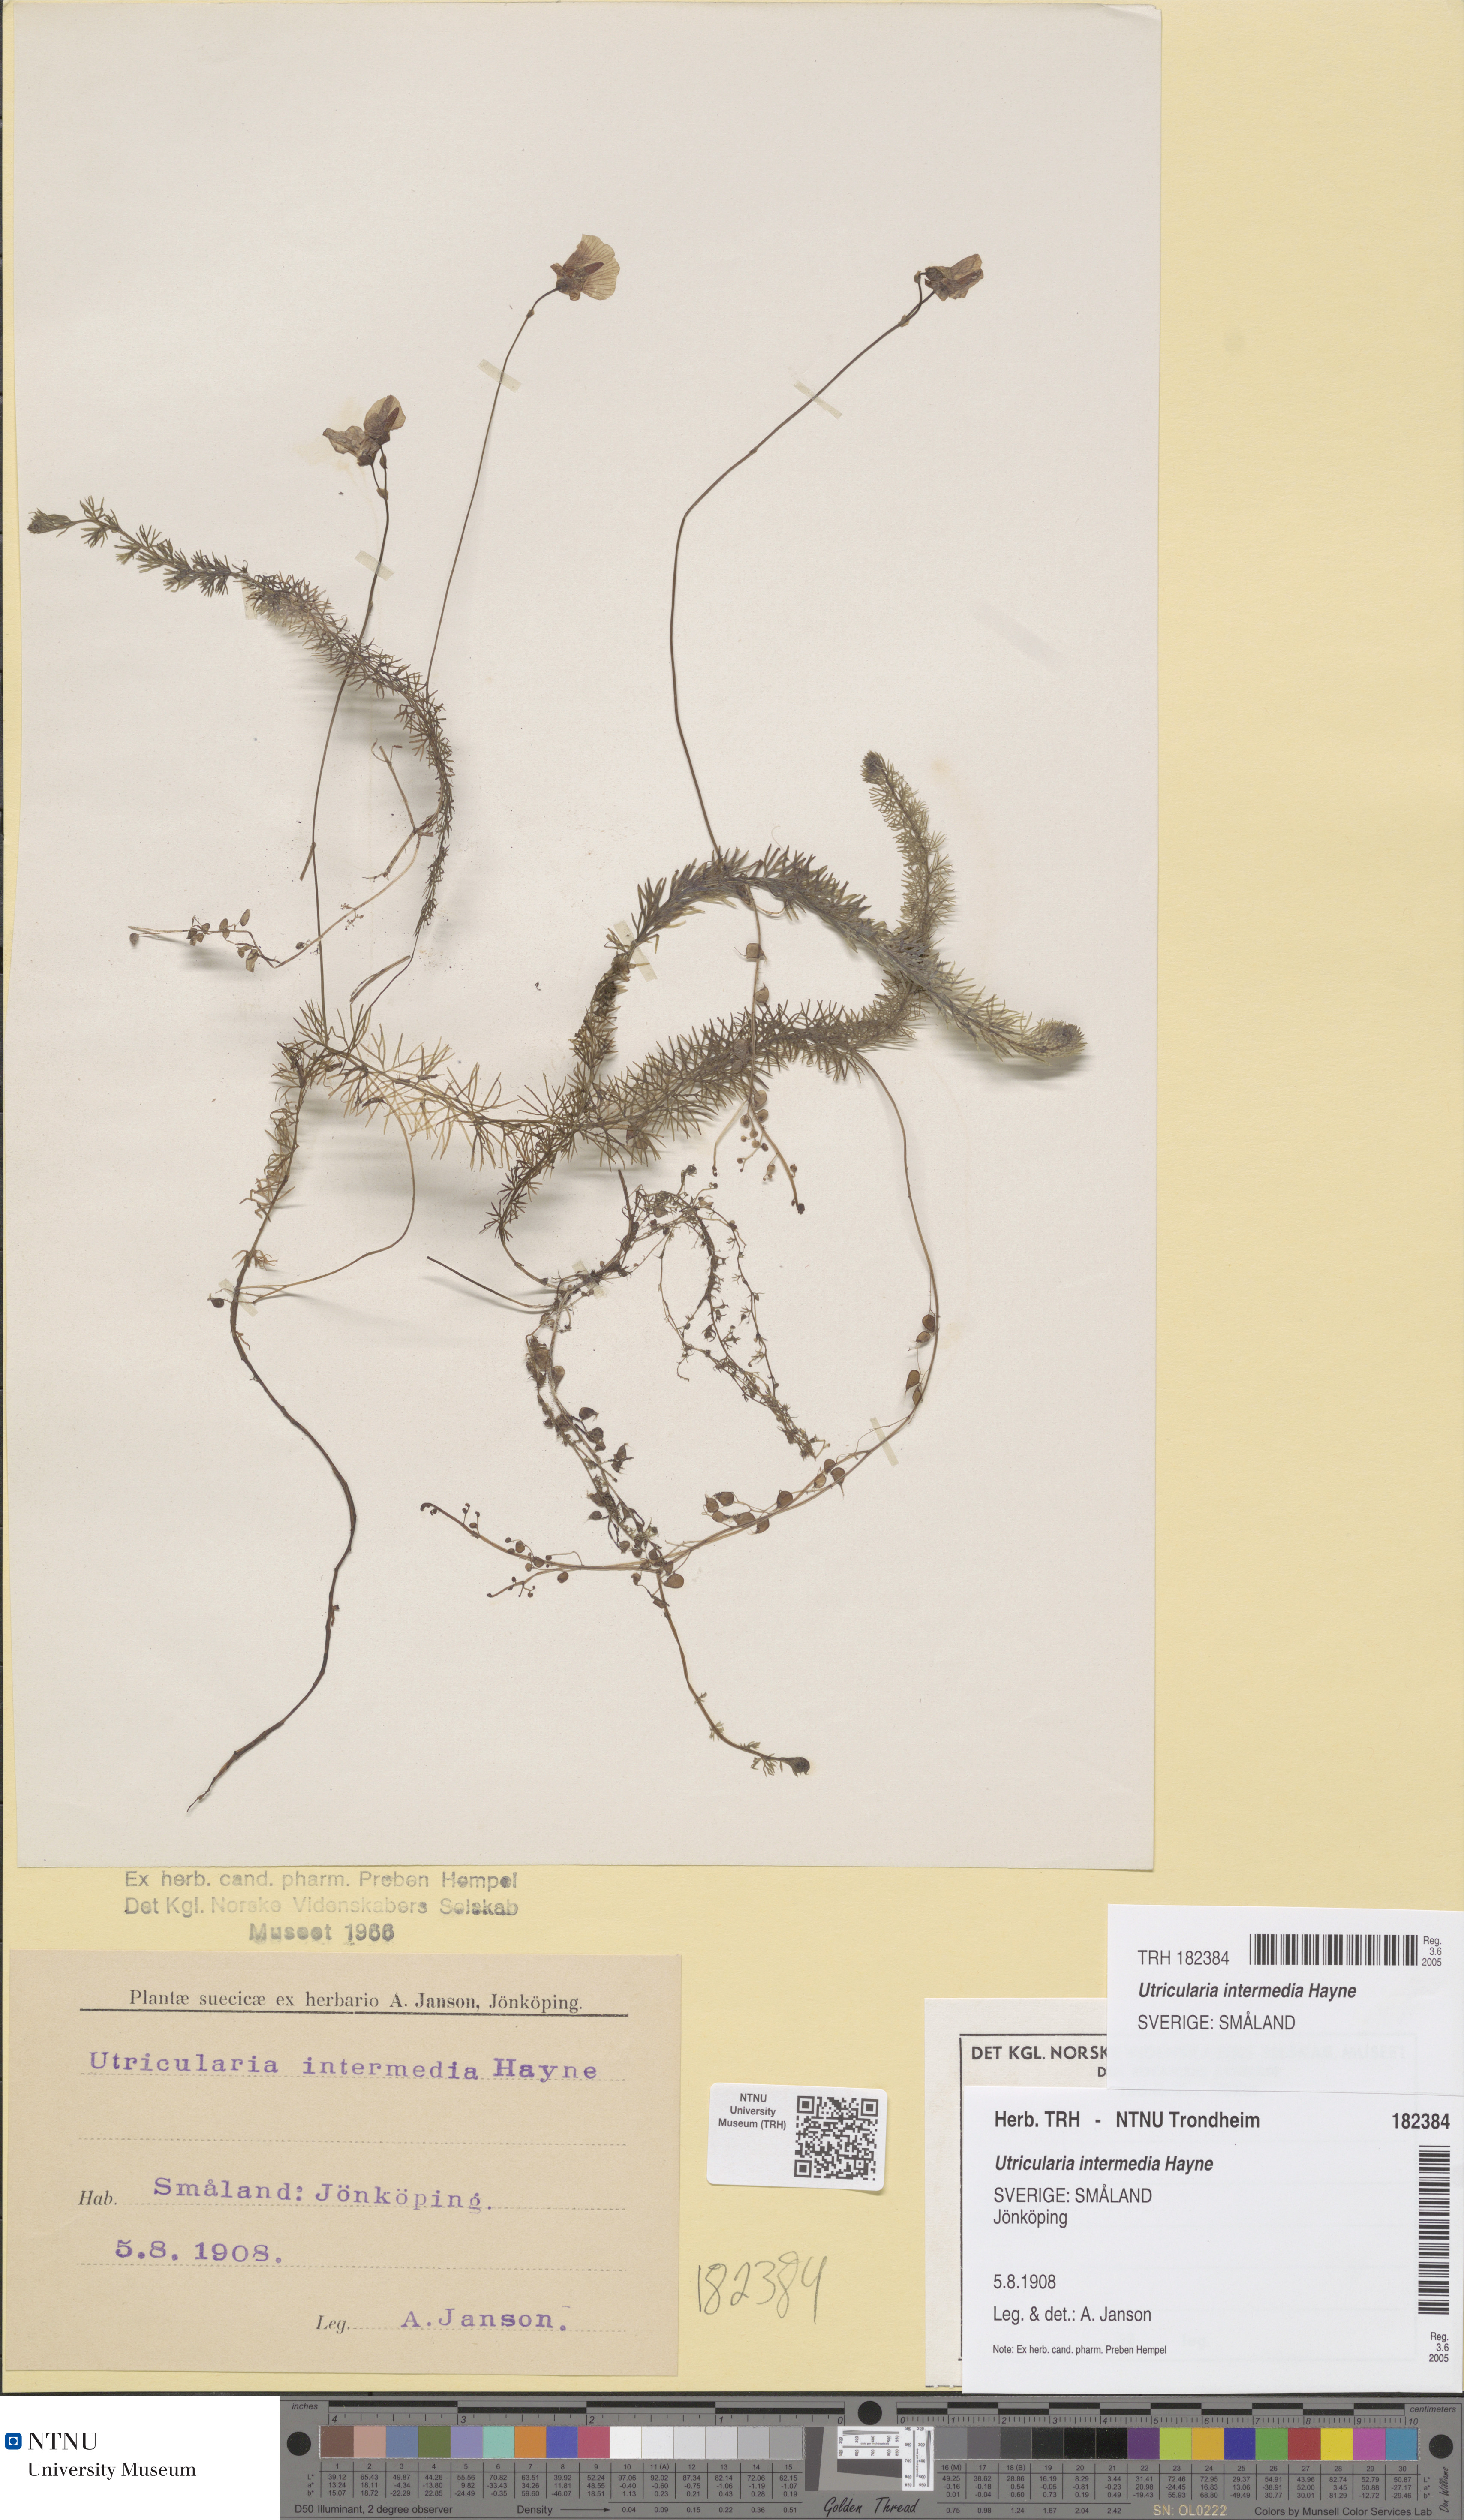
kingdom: Plantae
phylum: Tracheophyta
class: Magnoliopsida
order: Lamiales
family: Lentibulariaceae
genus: Utricularia
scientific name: Utricularia intermedia
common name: Intermediate bladderwort
